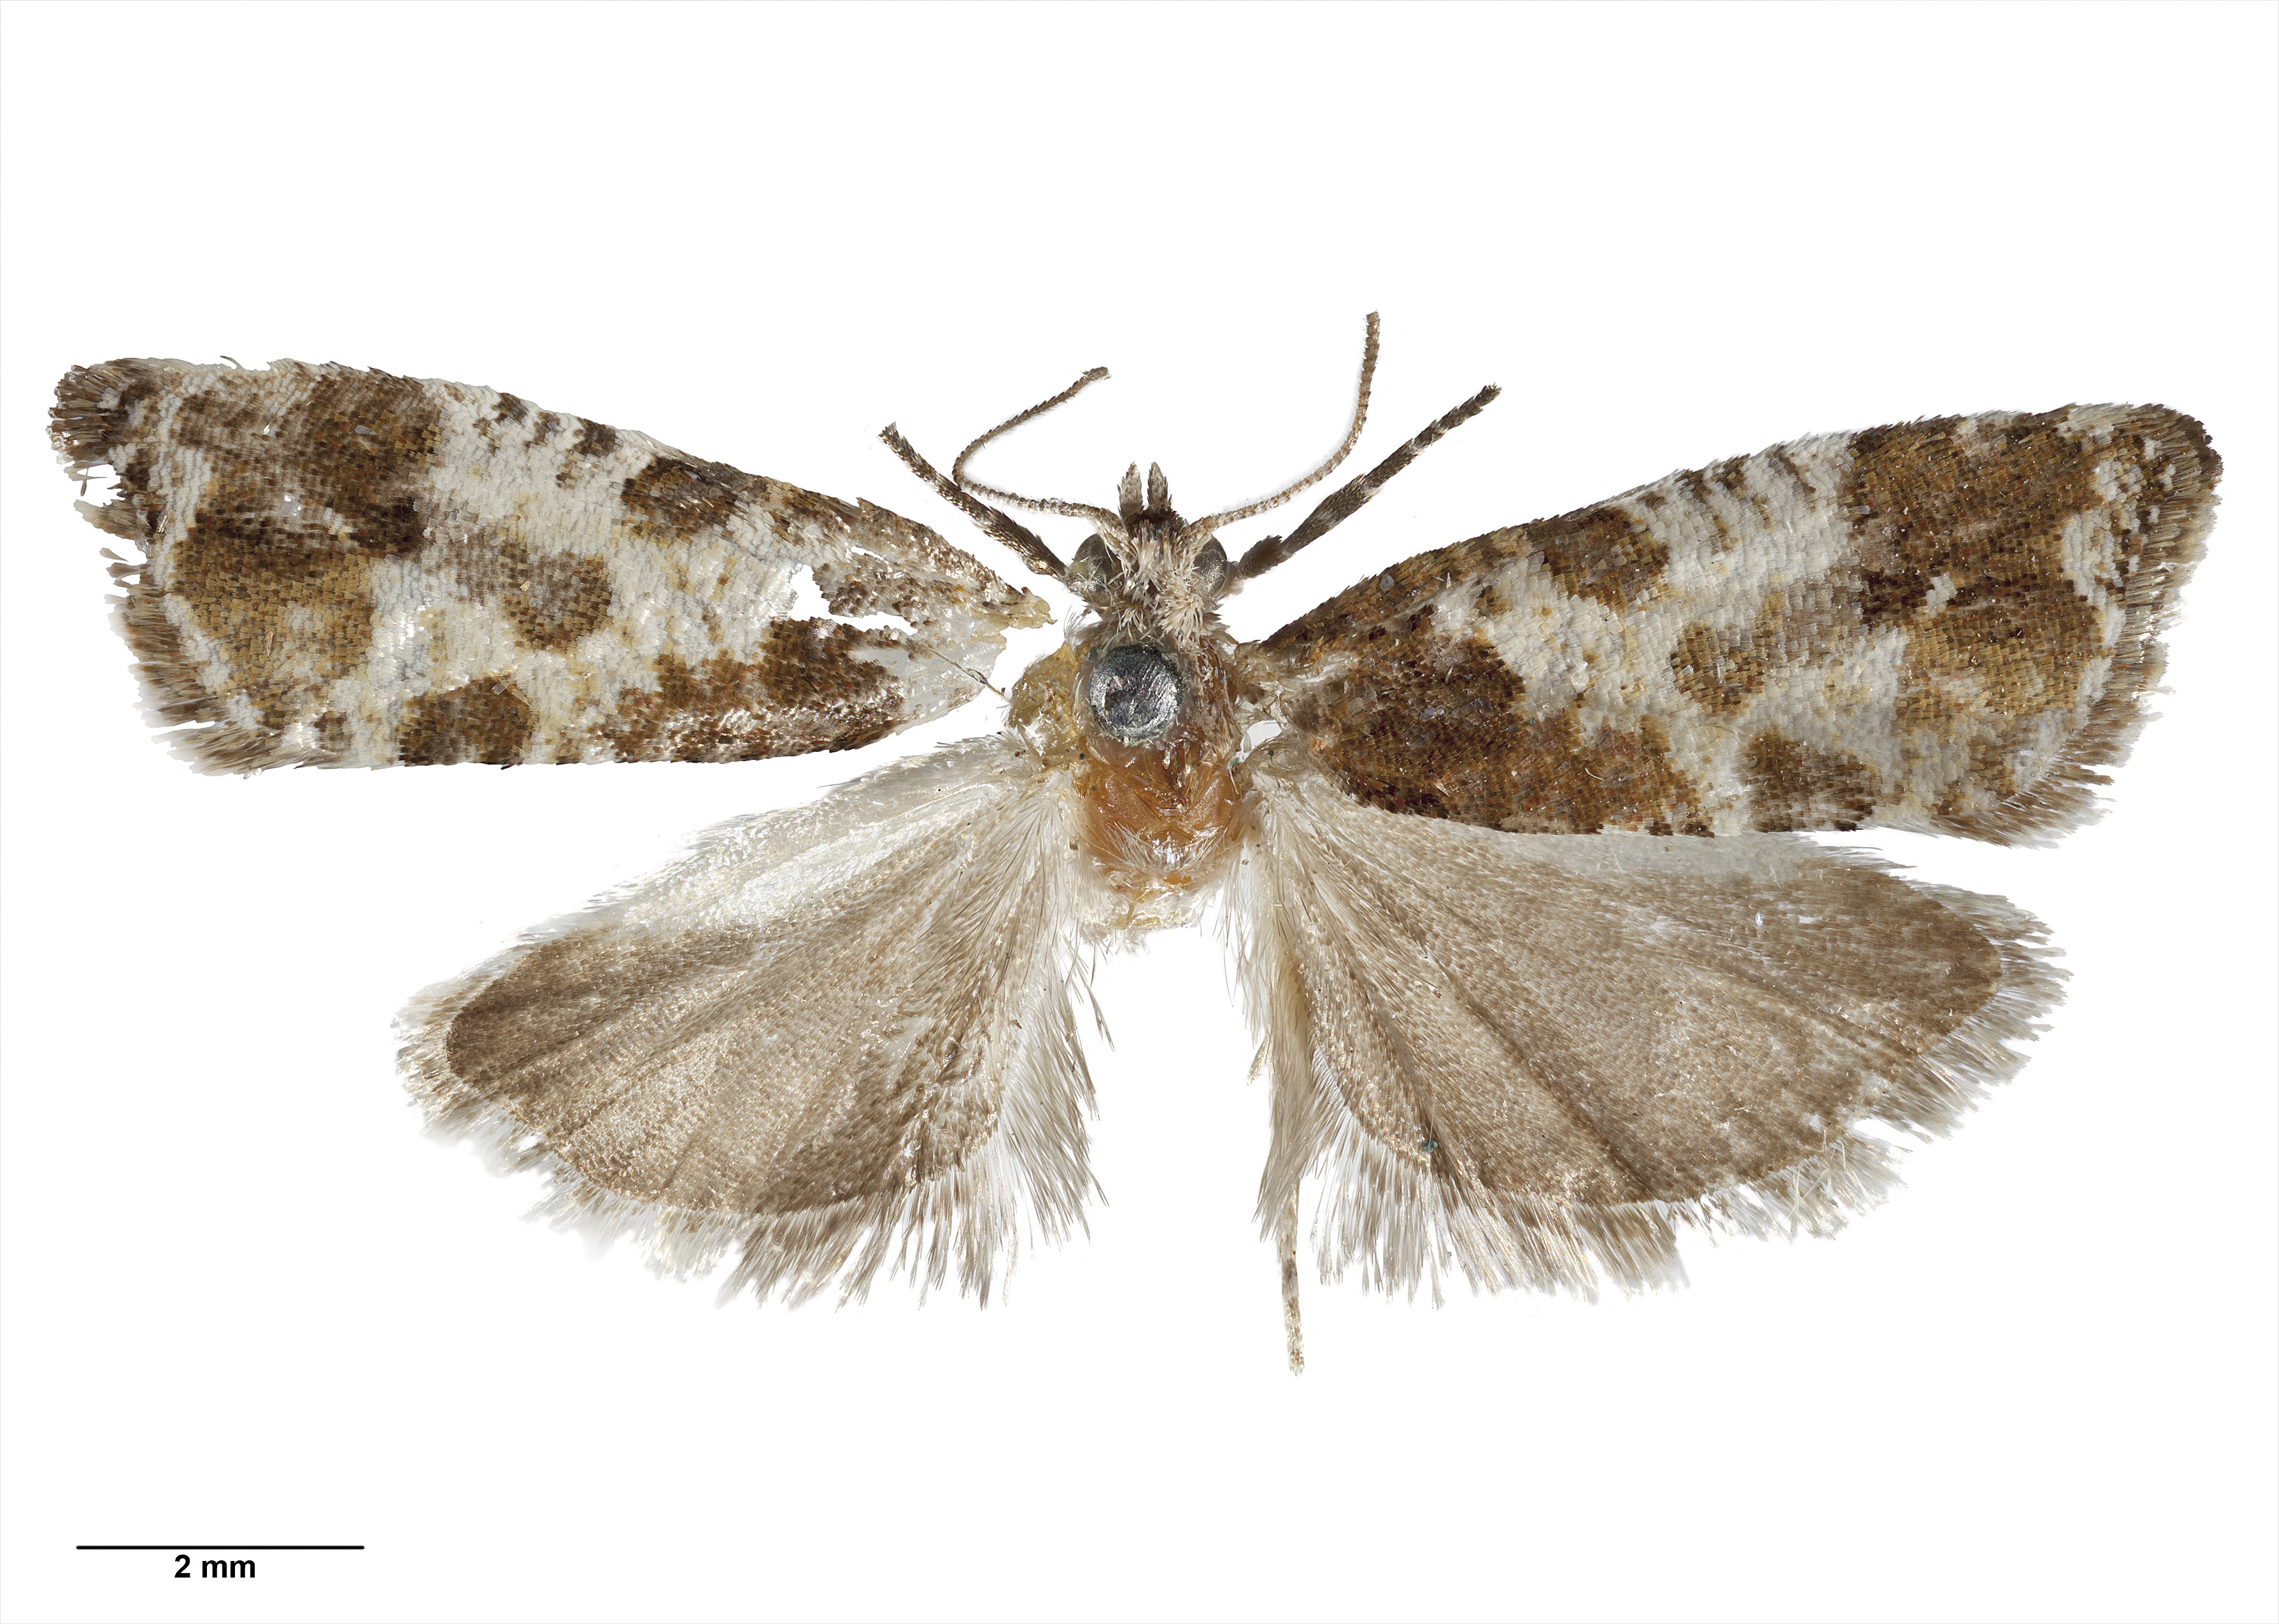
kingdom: Animalia
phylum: Arthropoda
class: Insecta
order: Lepidoptera
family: Tortricidae
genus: Pyrgotis
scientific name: Pyrgotis calligypsa
